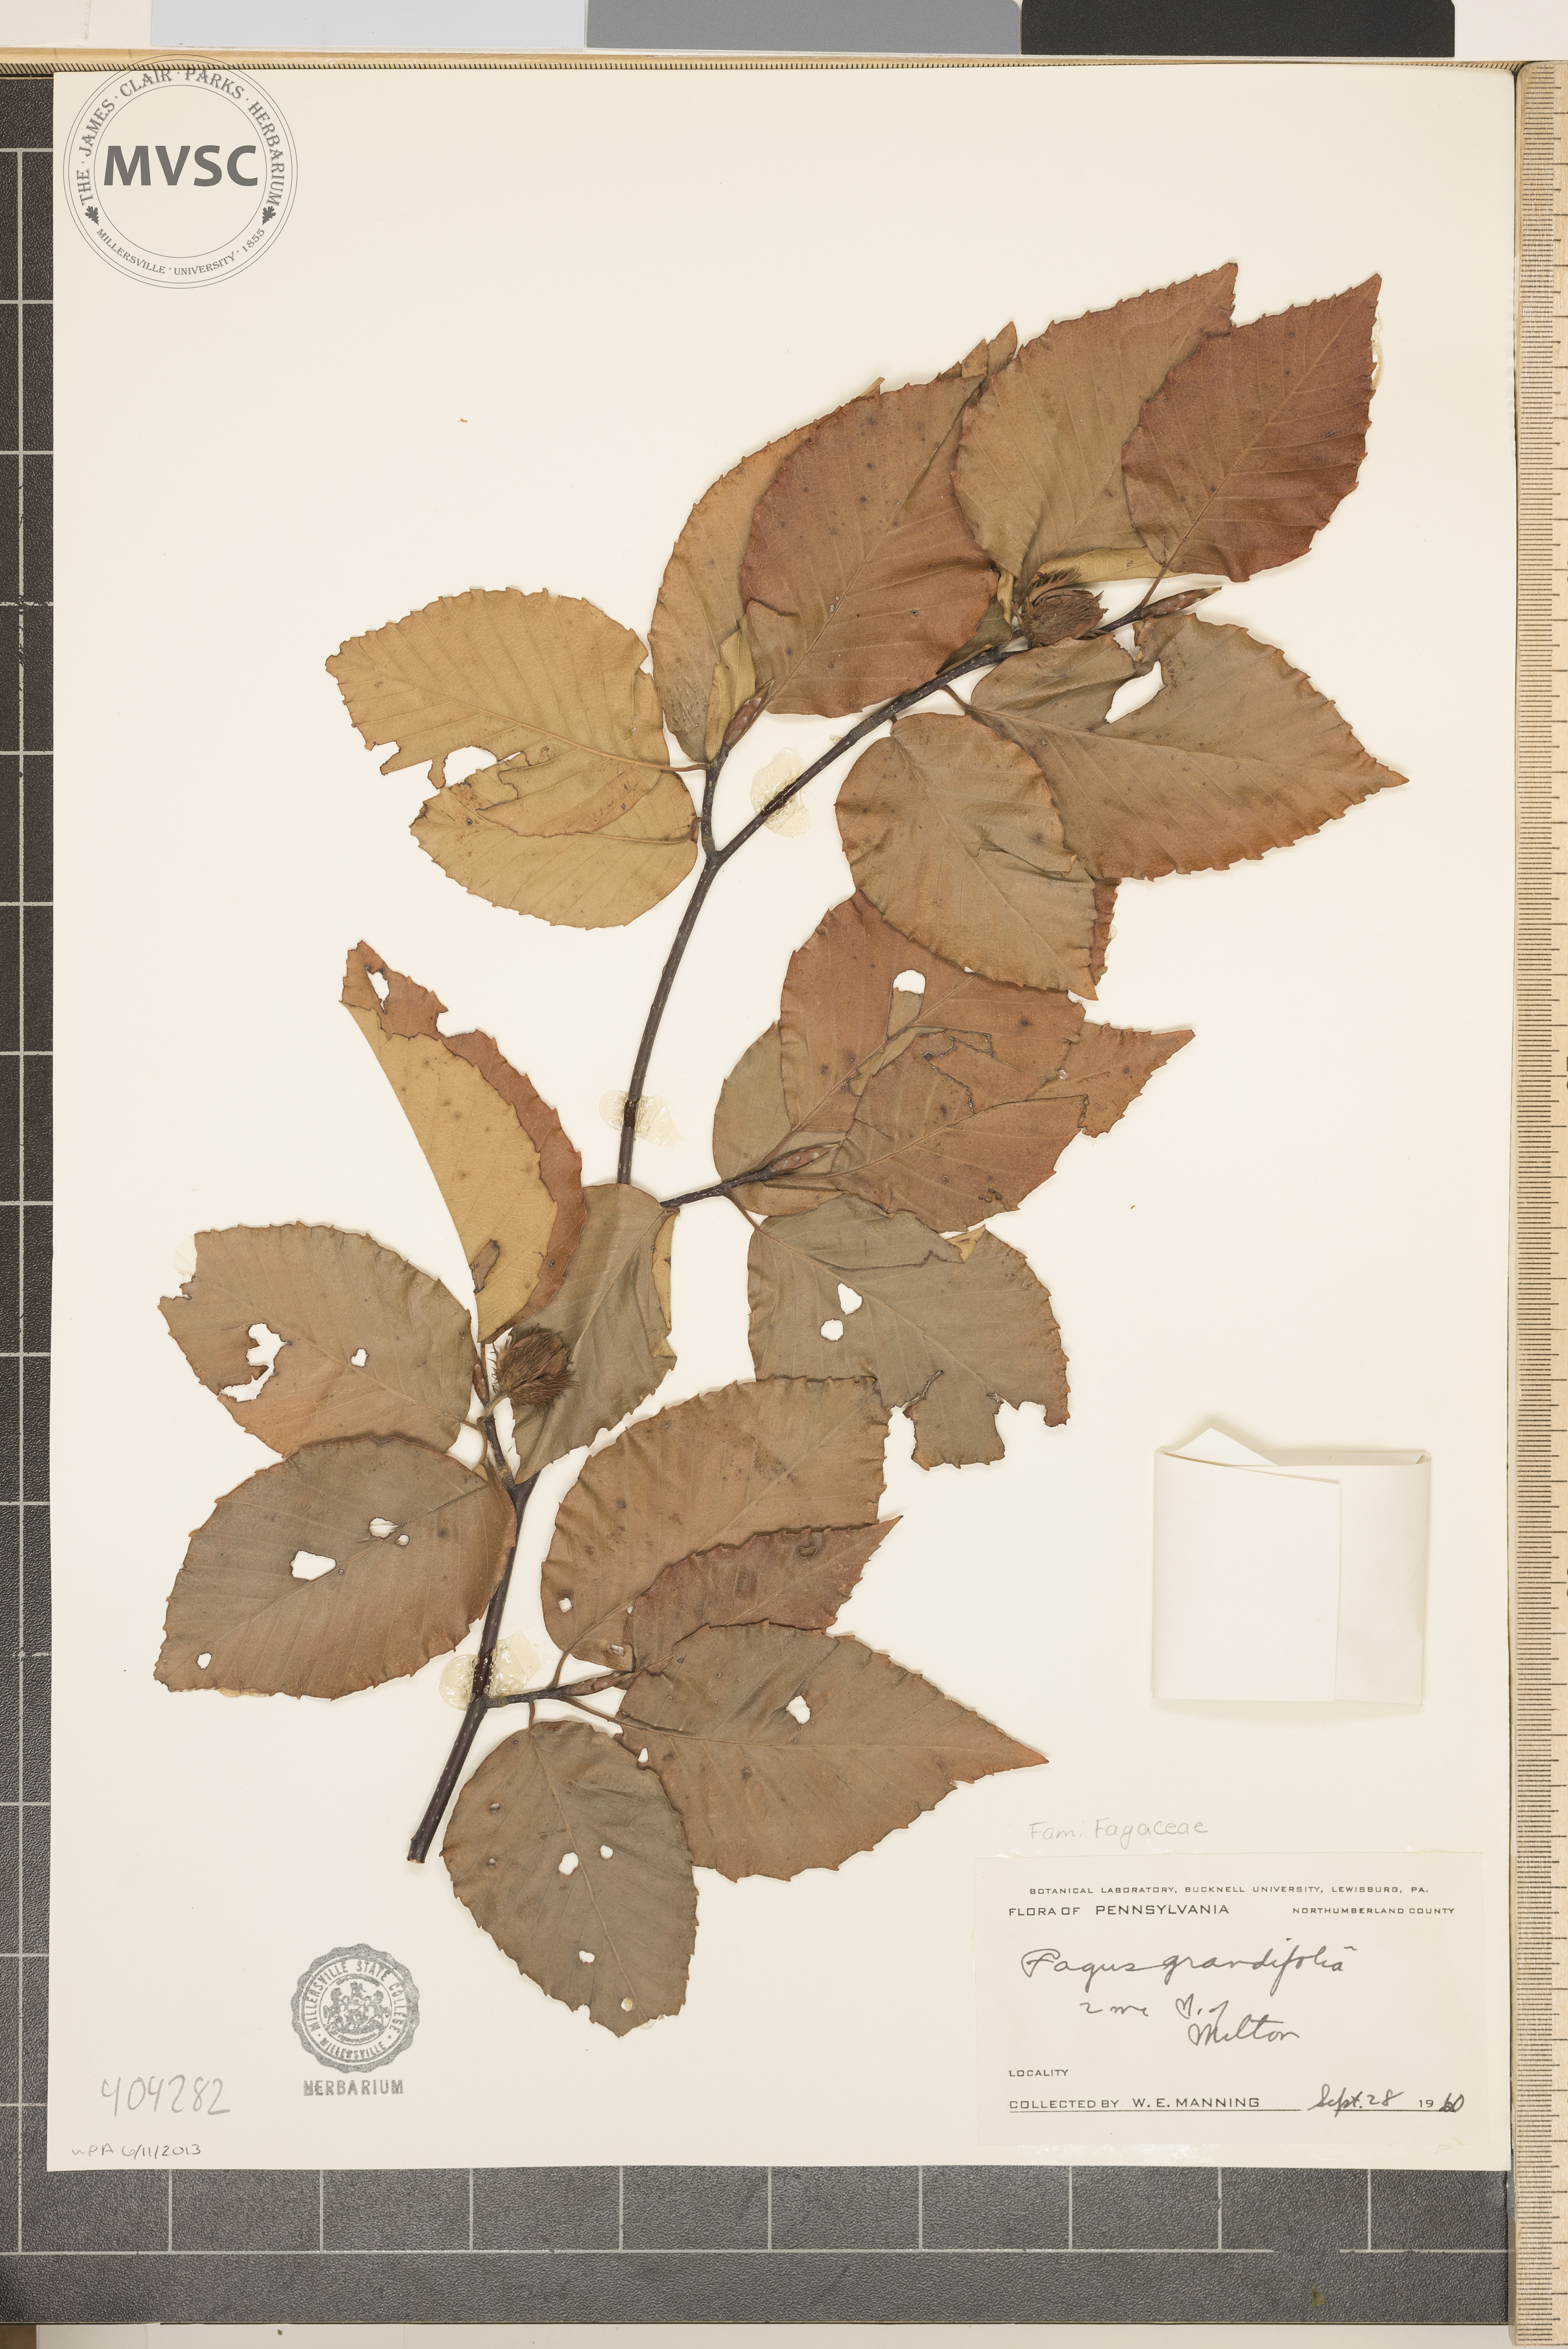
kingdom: Plantae
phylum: Tracheophyta
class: Magnoliopsida
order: Fagales
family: Fagaceae
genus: Fagus
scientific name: Fagus grandifolia
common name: American beech
